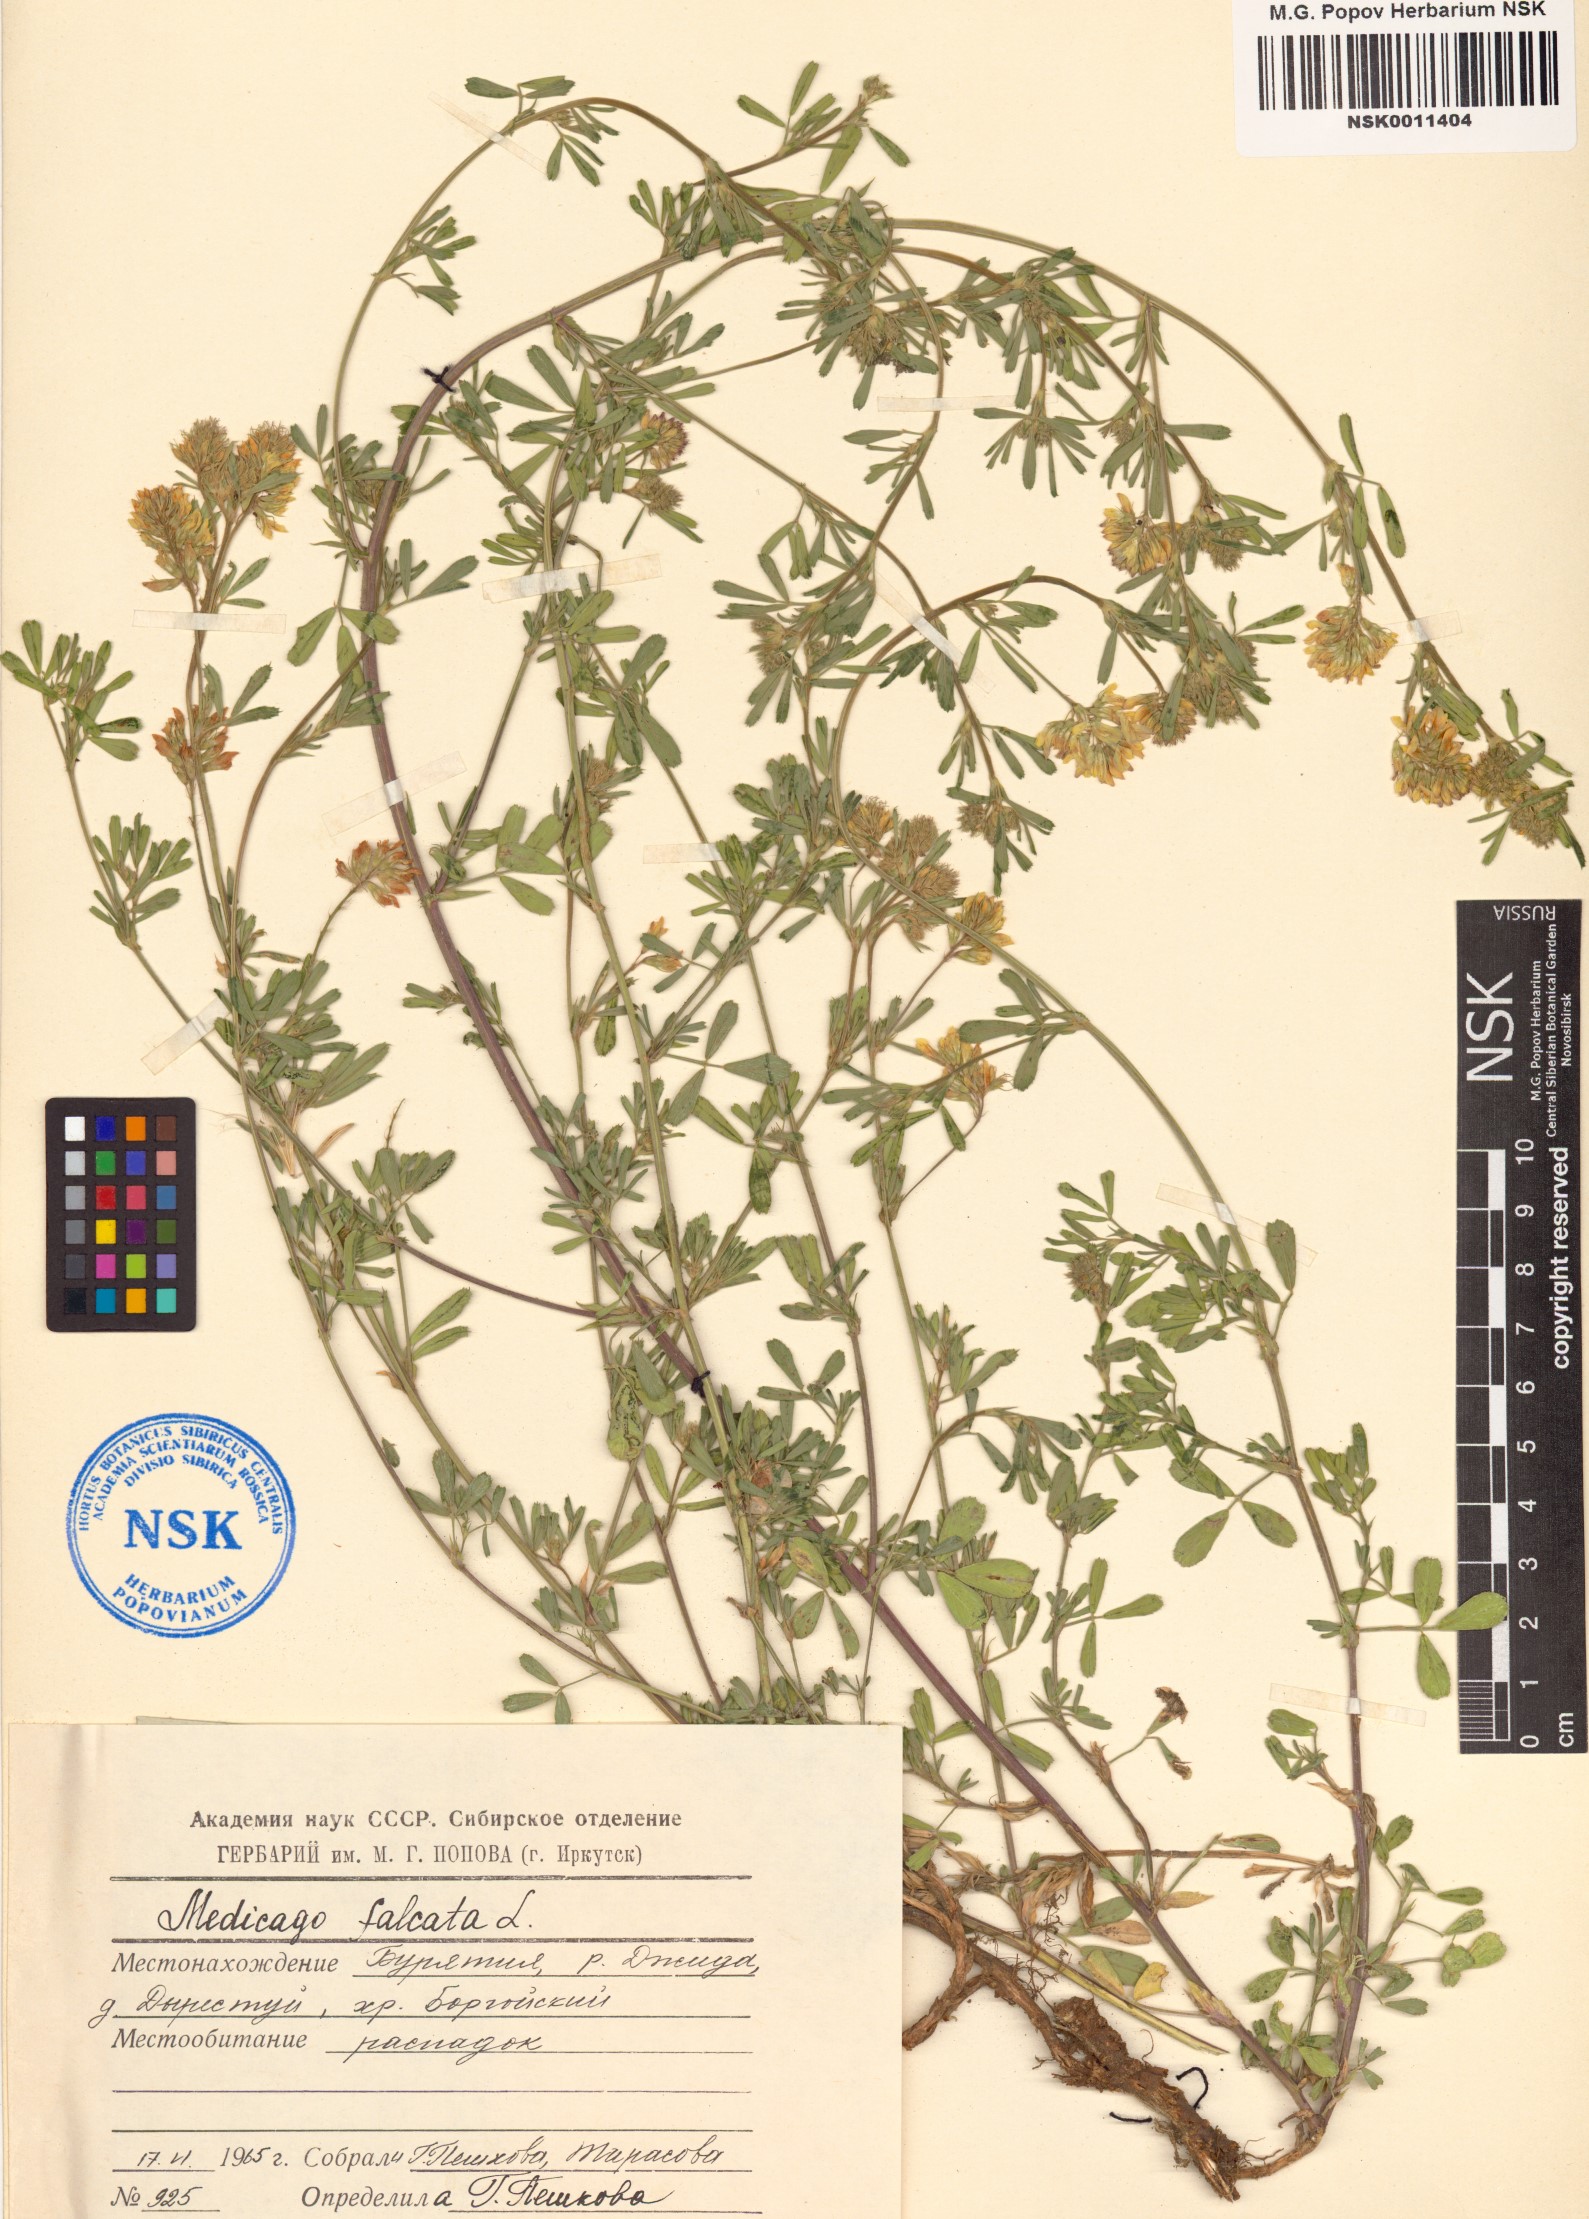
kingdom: Plantae
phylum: Tracheophyta
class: Magnoliopsida
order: Fabales
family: Fabaceae
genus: Medicago
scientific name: Medicago falcata
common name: Sickle medick
